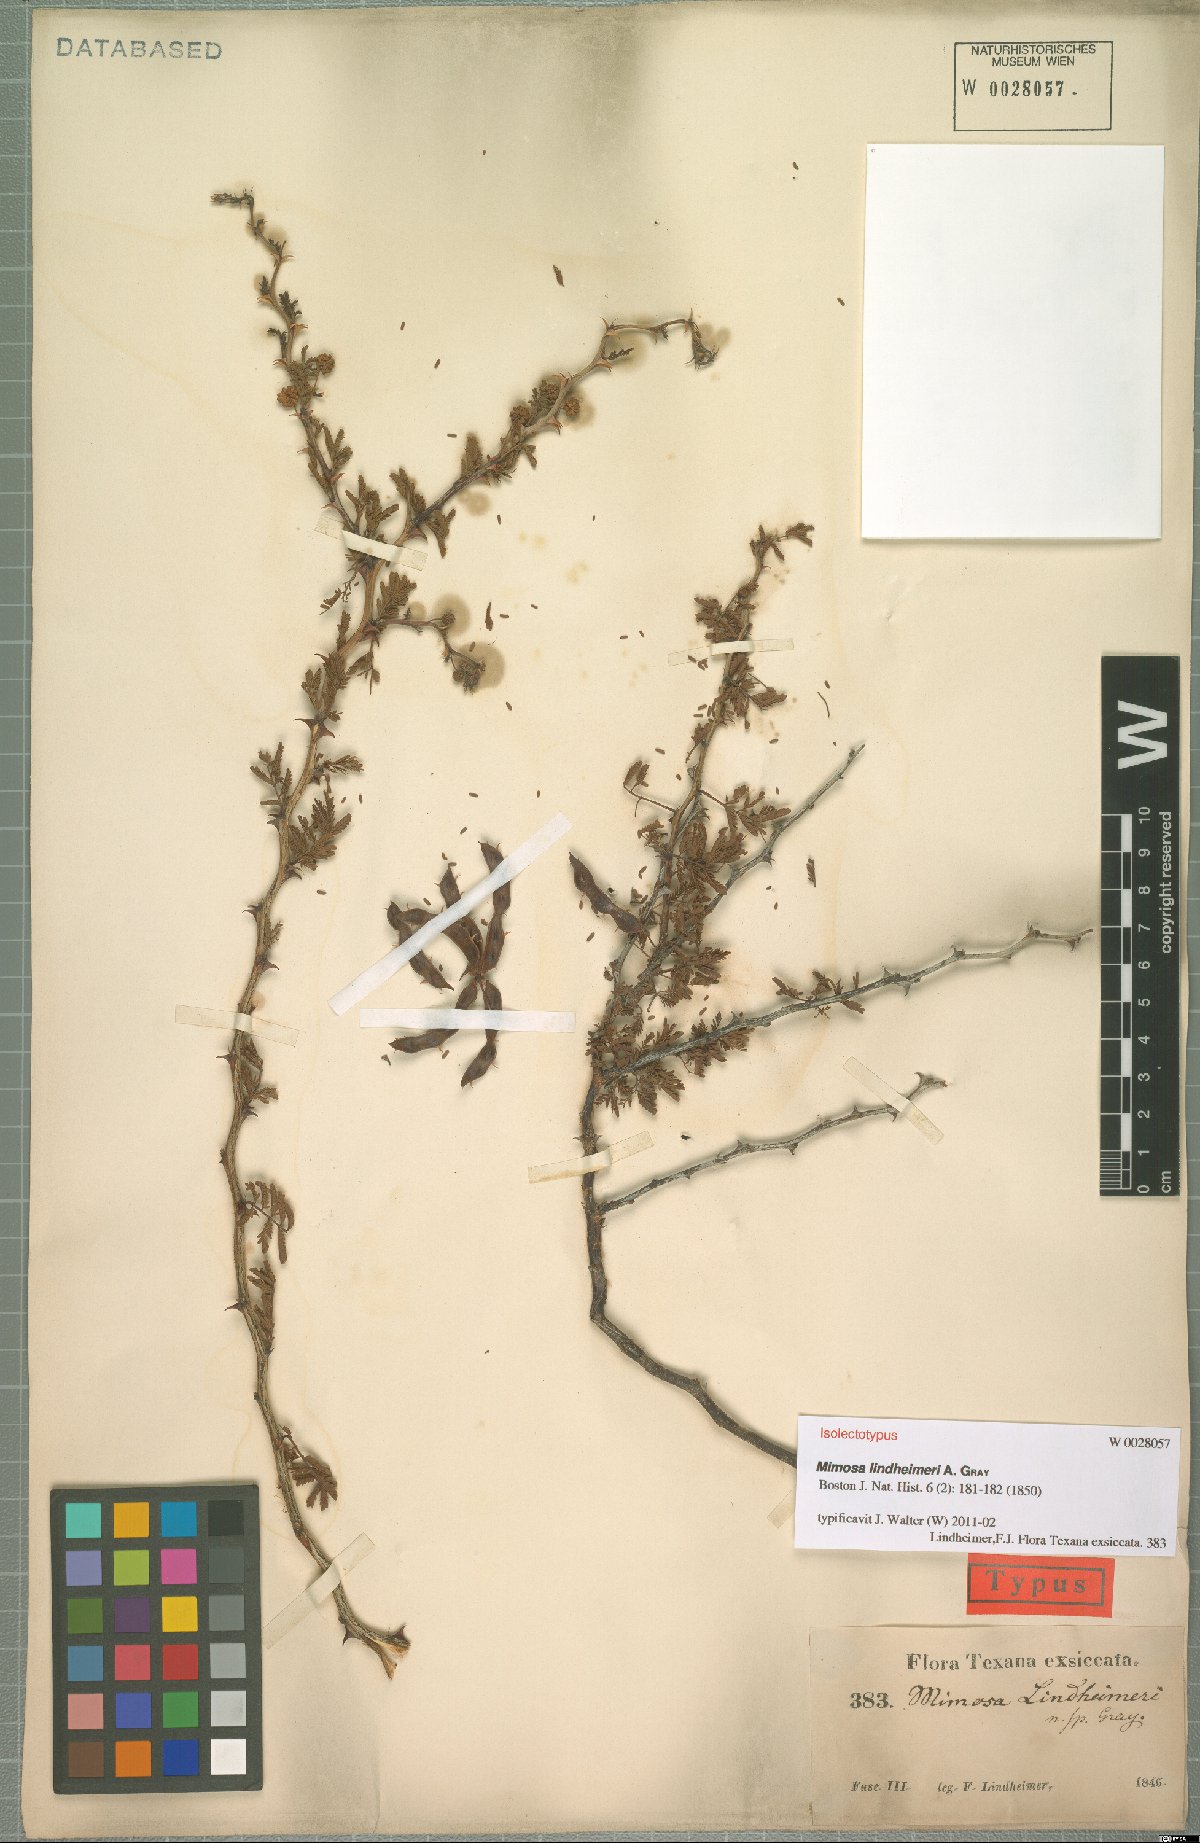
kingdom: Plantae
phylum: Tracheophyta
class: Magnoliopsida
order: Fabales
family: Fabaceae
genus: Mimosa
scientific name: Mimosa biuncifera
